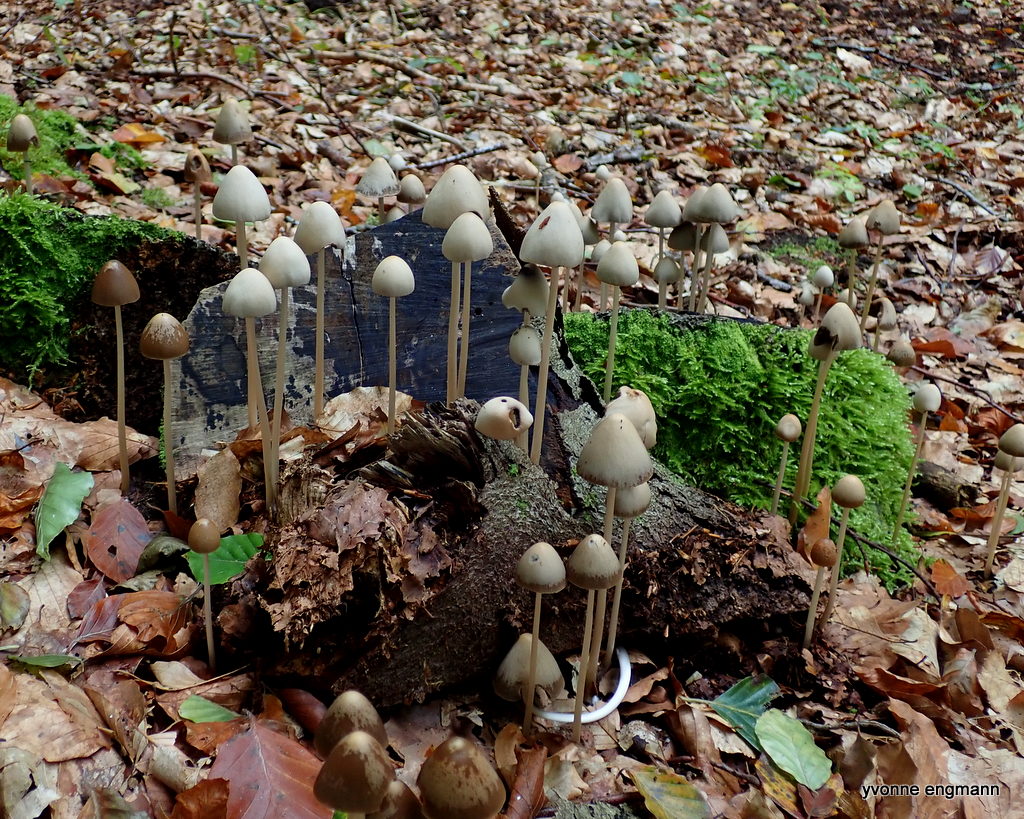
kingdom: Fungi
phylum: Basidiomycota
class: Agaricomycetes
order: Agaricales
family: Psathyrellaceae
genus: Parasola
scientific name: Parasola conopilea
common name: kegle-hjulhat
